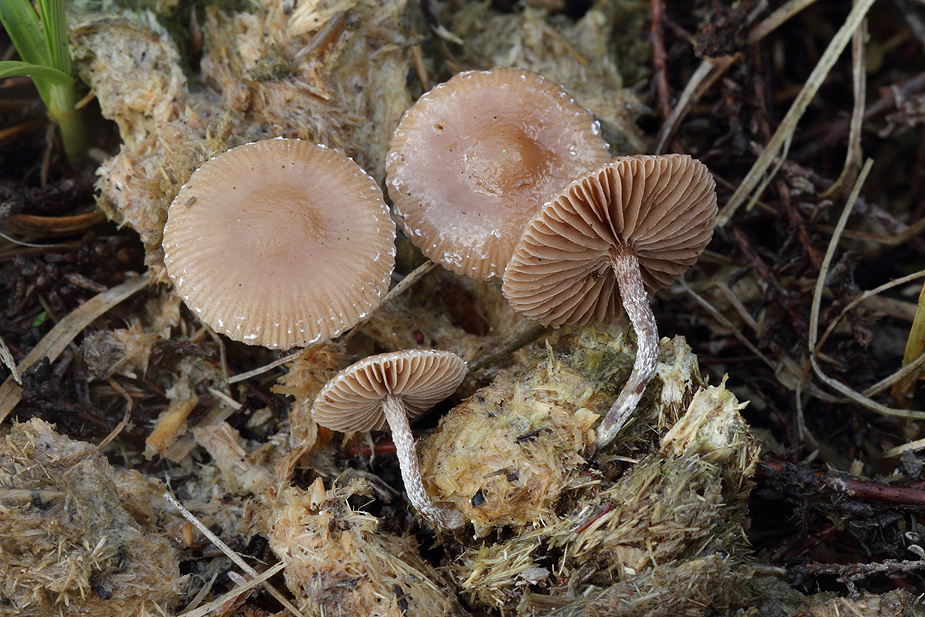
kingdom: Fungi
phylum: Basidiomycota
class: Agaricomycetes
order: Agaricales
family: Strophariaceae
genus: Deconica
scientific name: Deconica crobula
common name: træflis-stråhat
